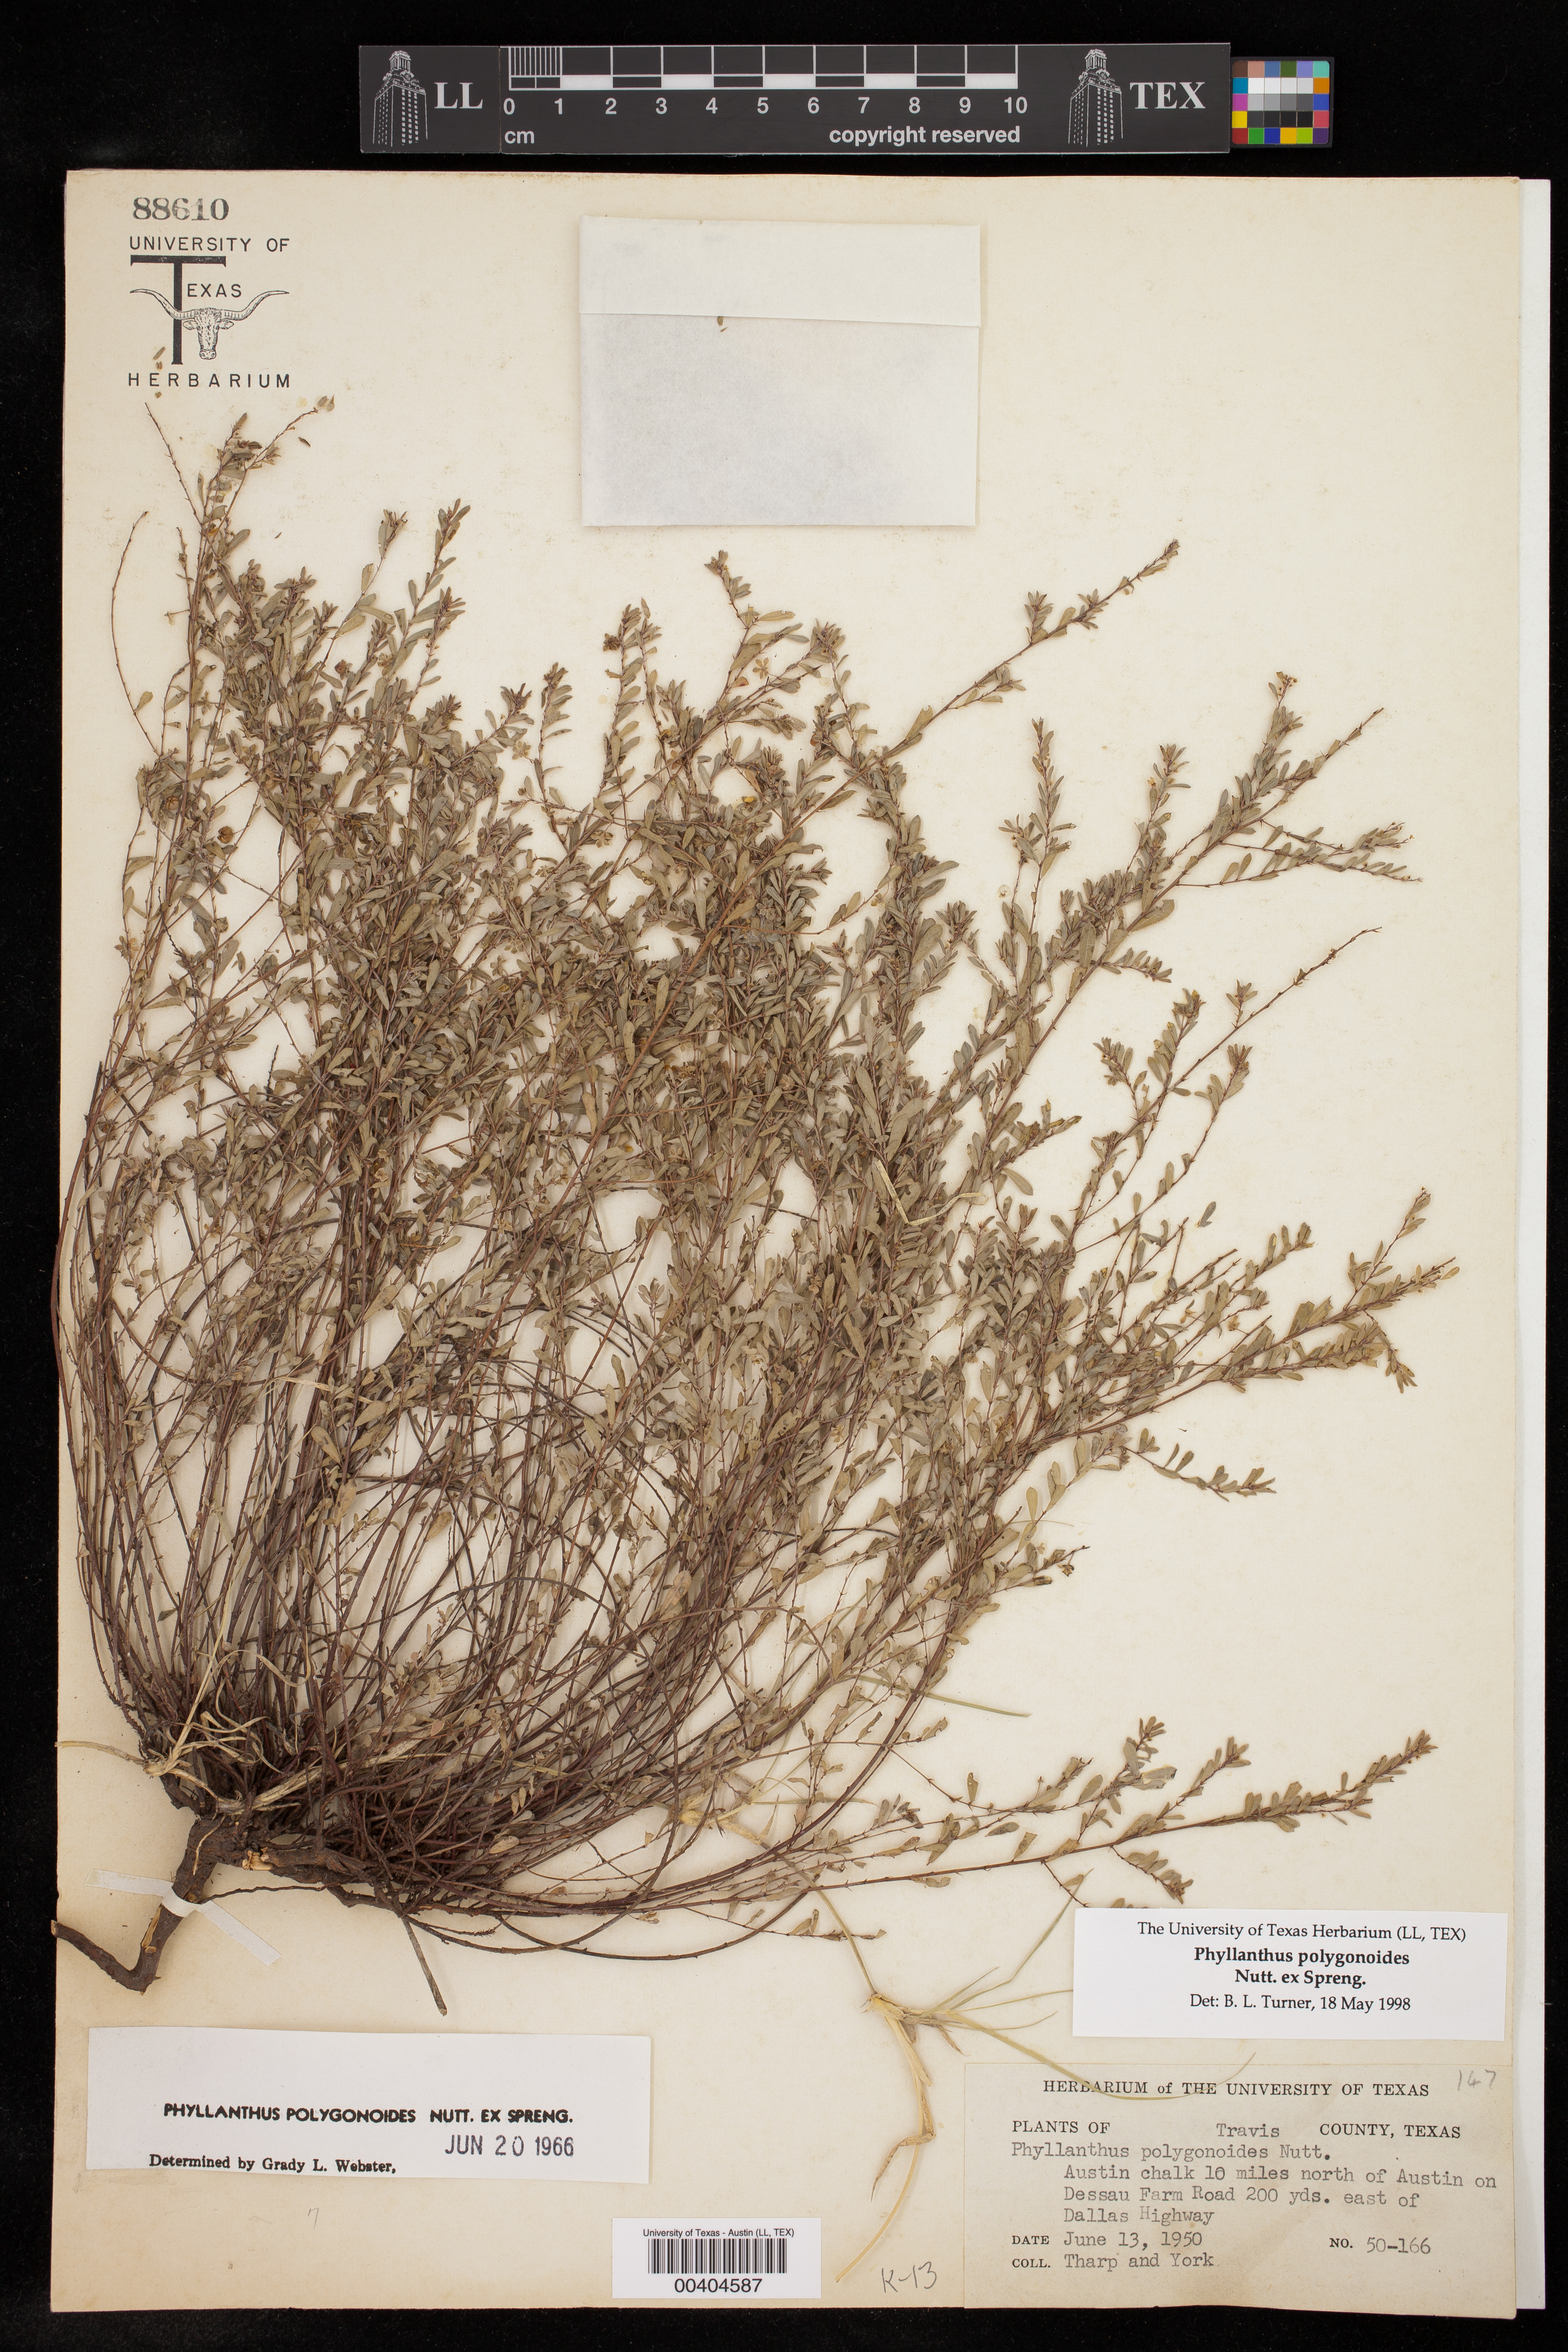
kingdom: Plantae
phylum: Tracheophyta
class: Magnoliopsida
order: Malpighiales
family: Phyllanthaceae
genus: Phyllanthus
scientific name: Phyllanthus polygonoides
